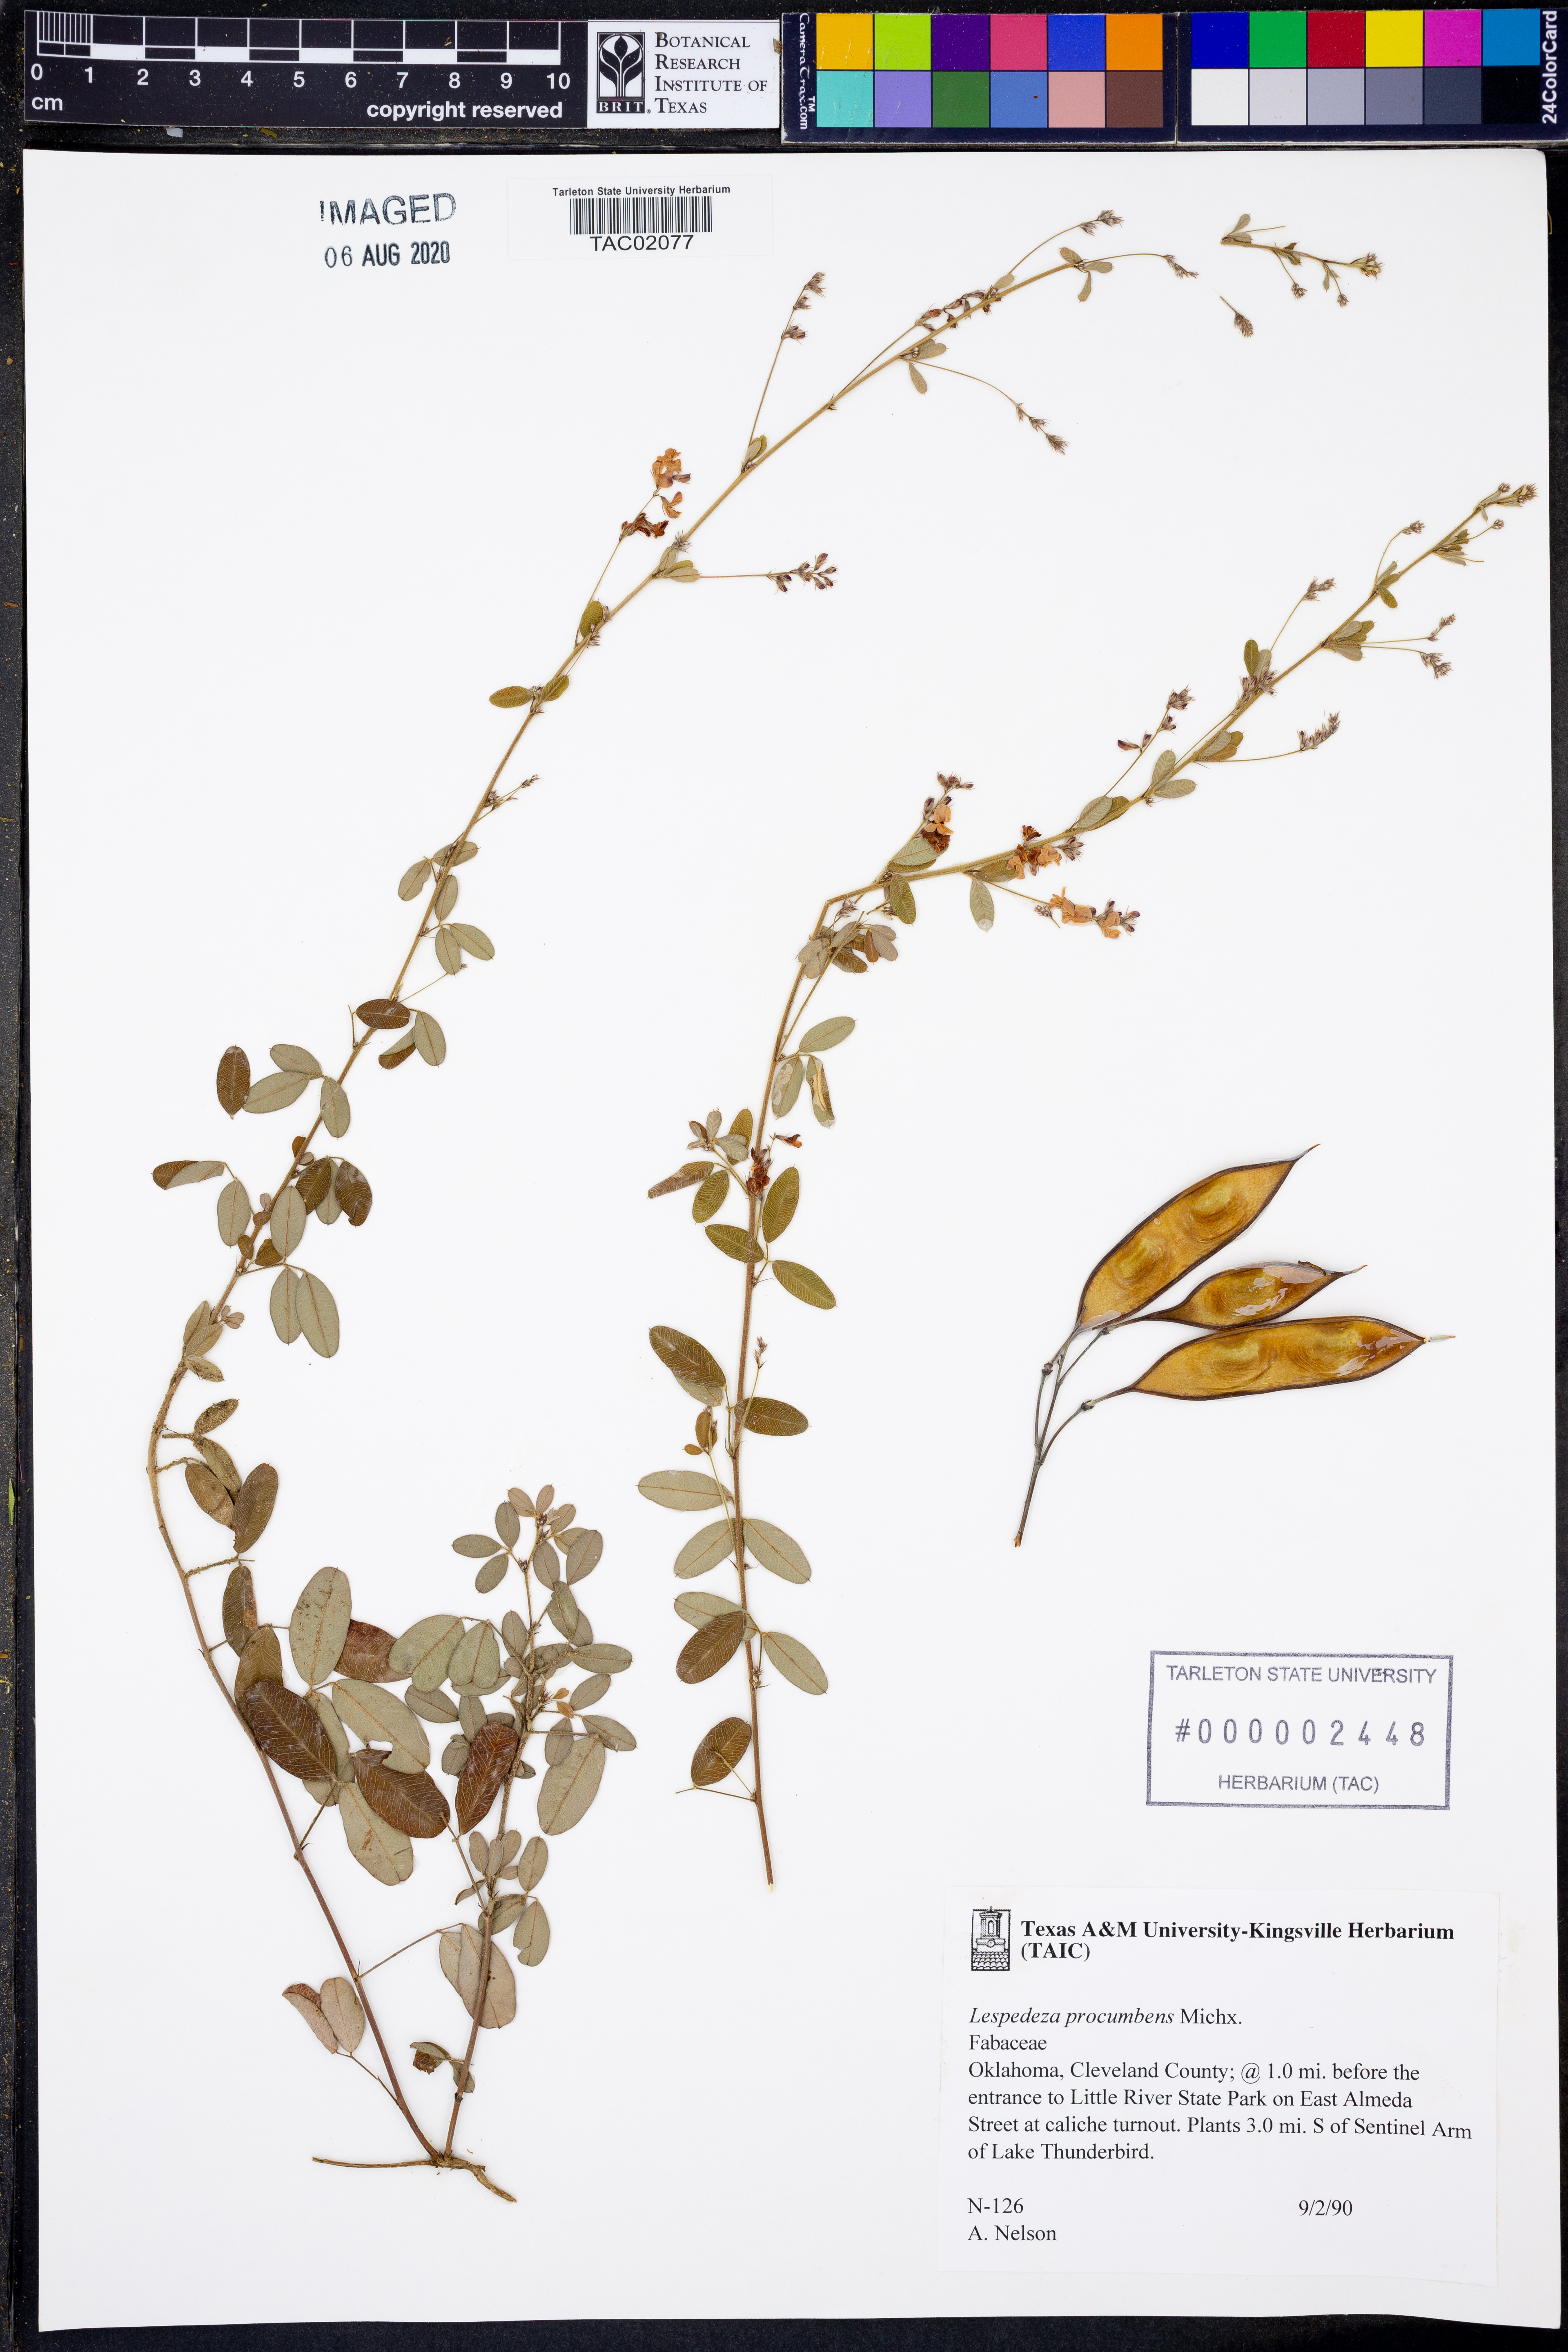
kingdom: Plantae
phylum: Tracheophyta
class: Magnoliopsida
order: Fabales
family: Fabaceae
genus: Lespedeza
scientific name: Lespedeza procumbens
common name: Downy trailing bush-clover
